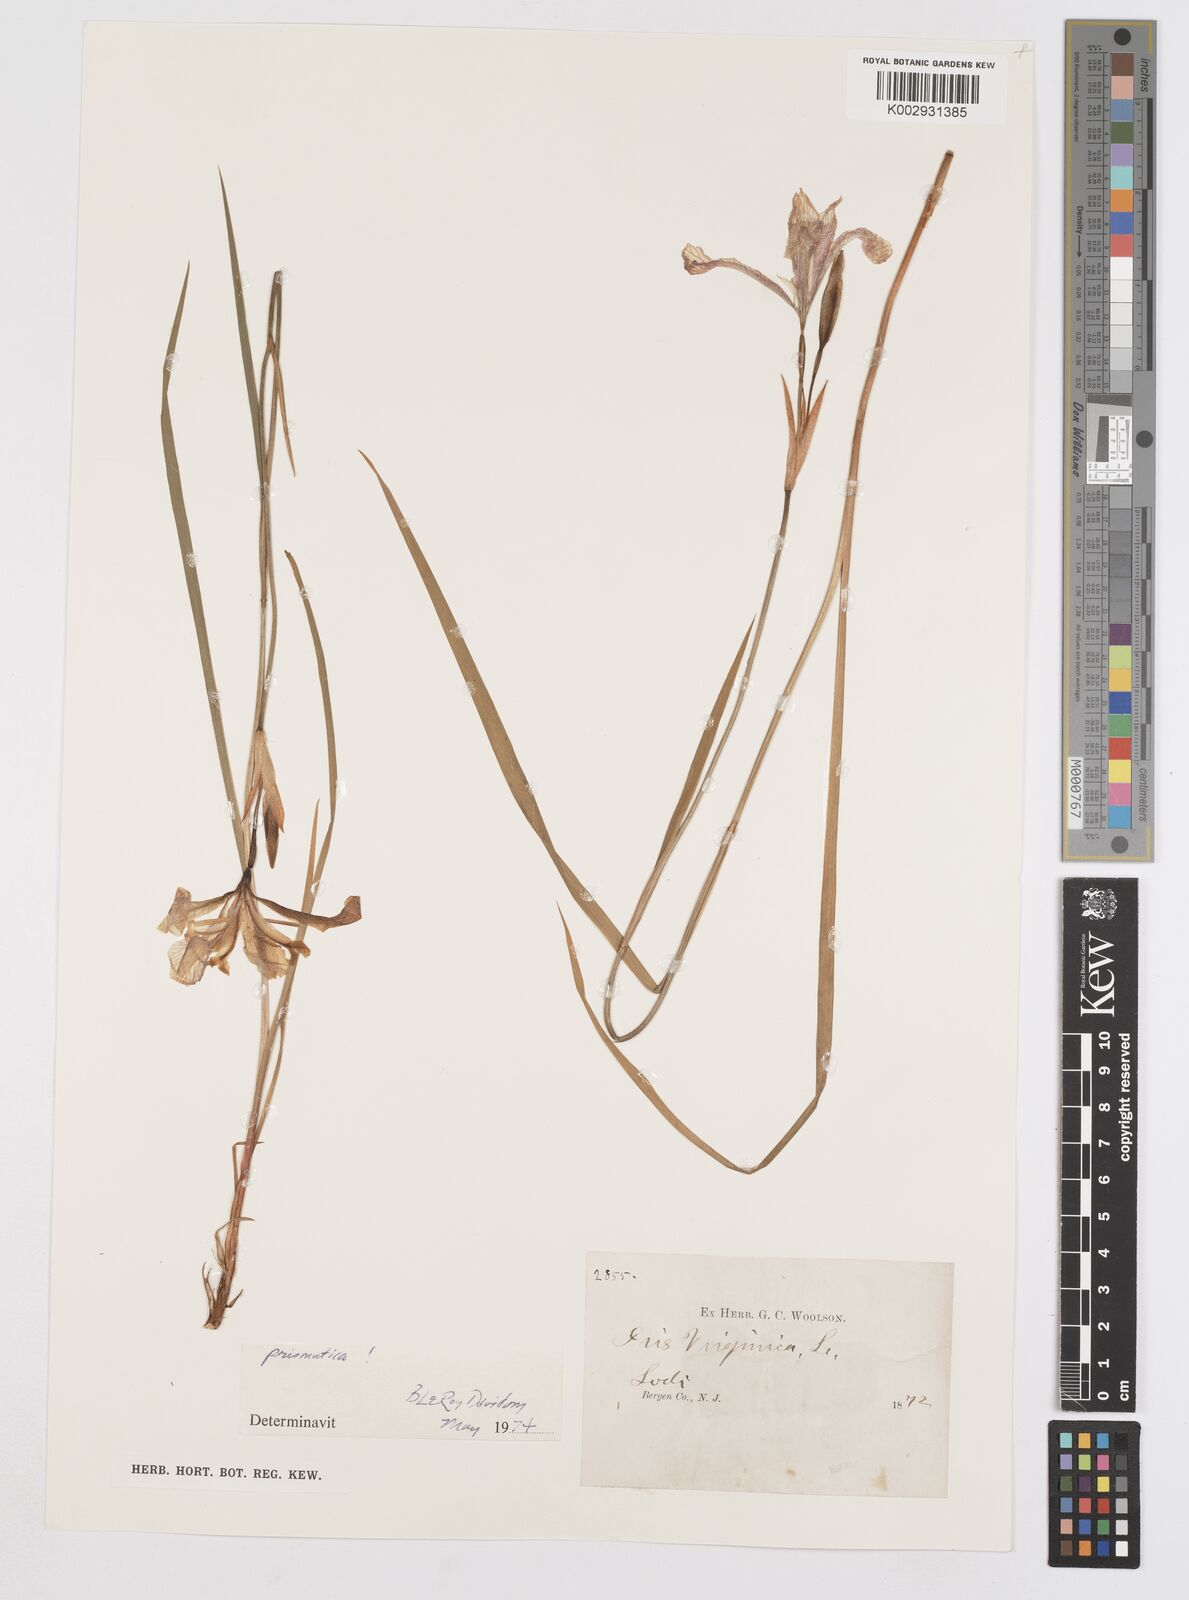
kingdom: Plantae
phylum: Tracheophyta
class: Liliopsida
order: Asparagales
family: Iridaceae
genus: Iris
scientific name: Iris prismatica
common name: Slender blue flag
